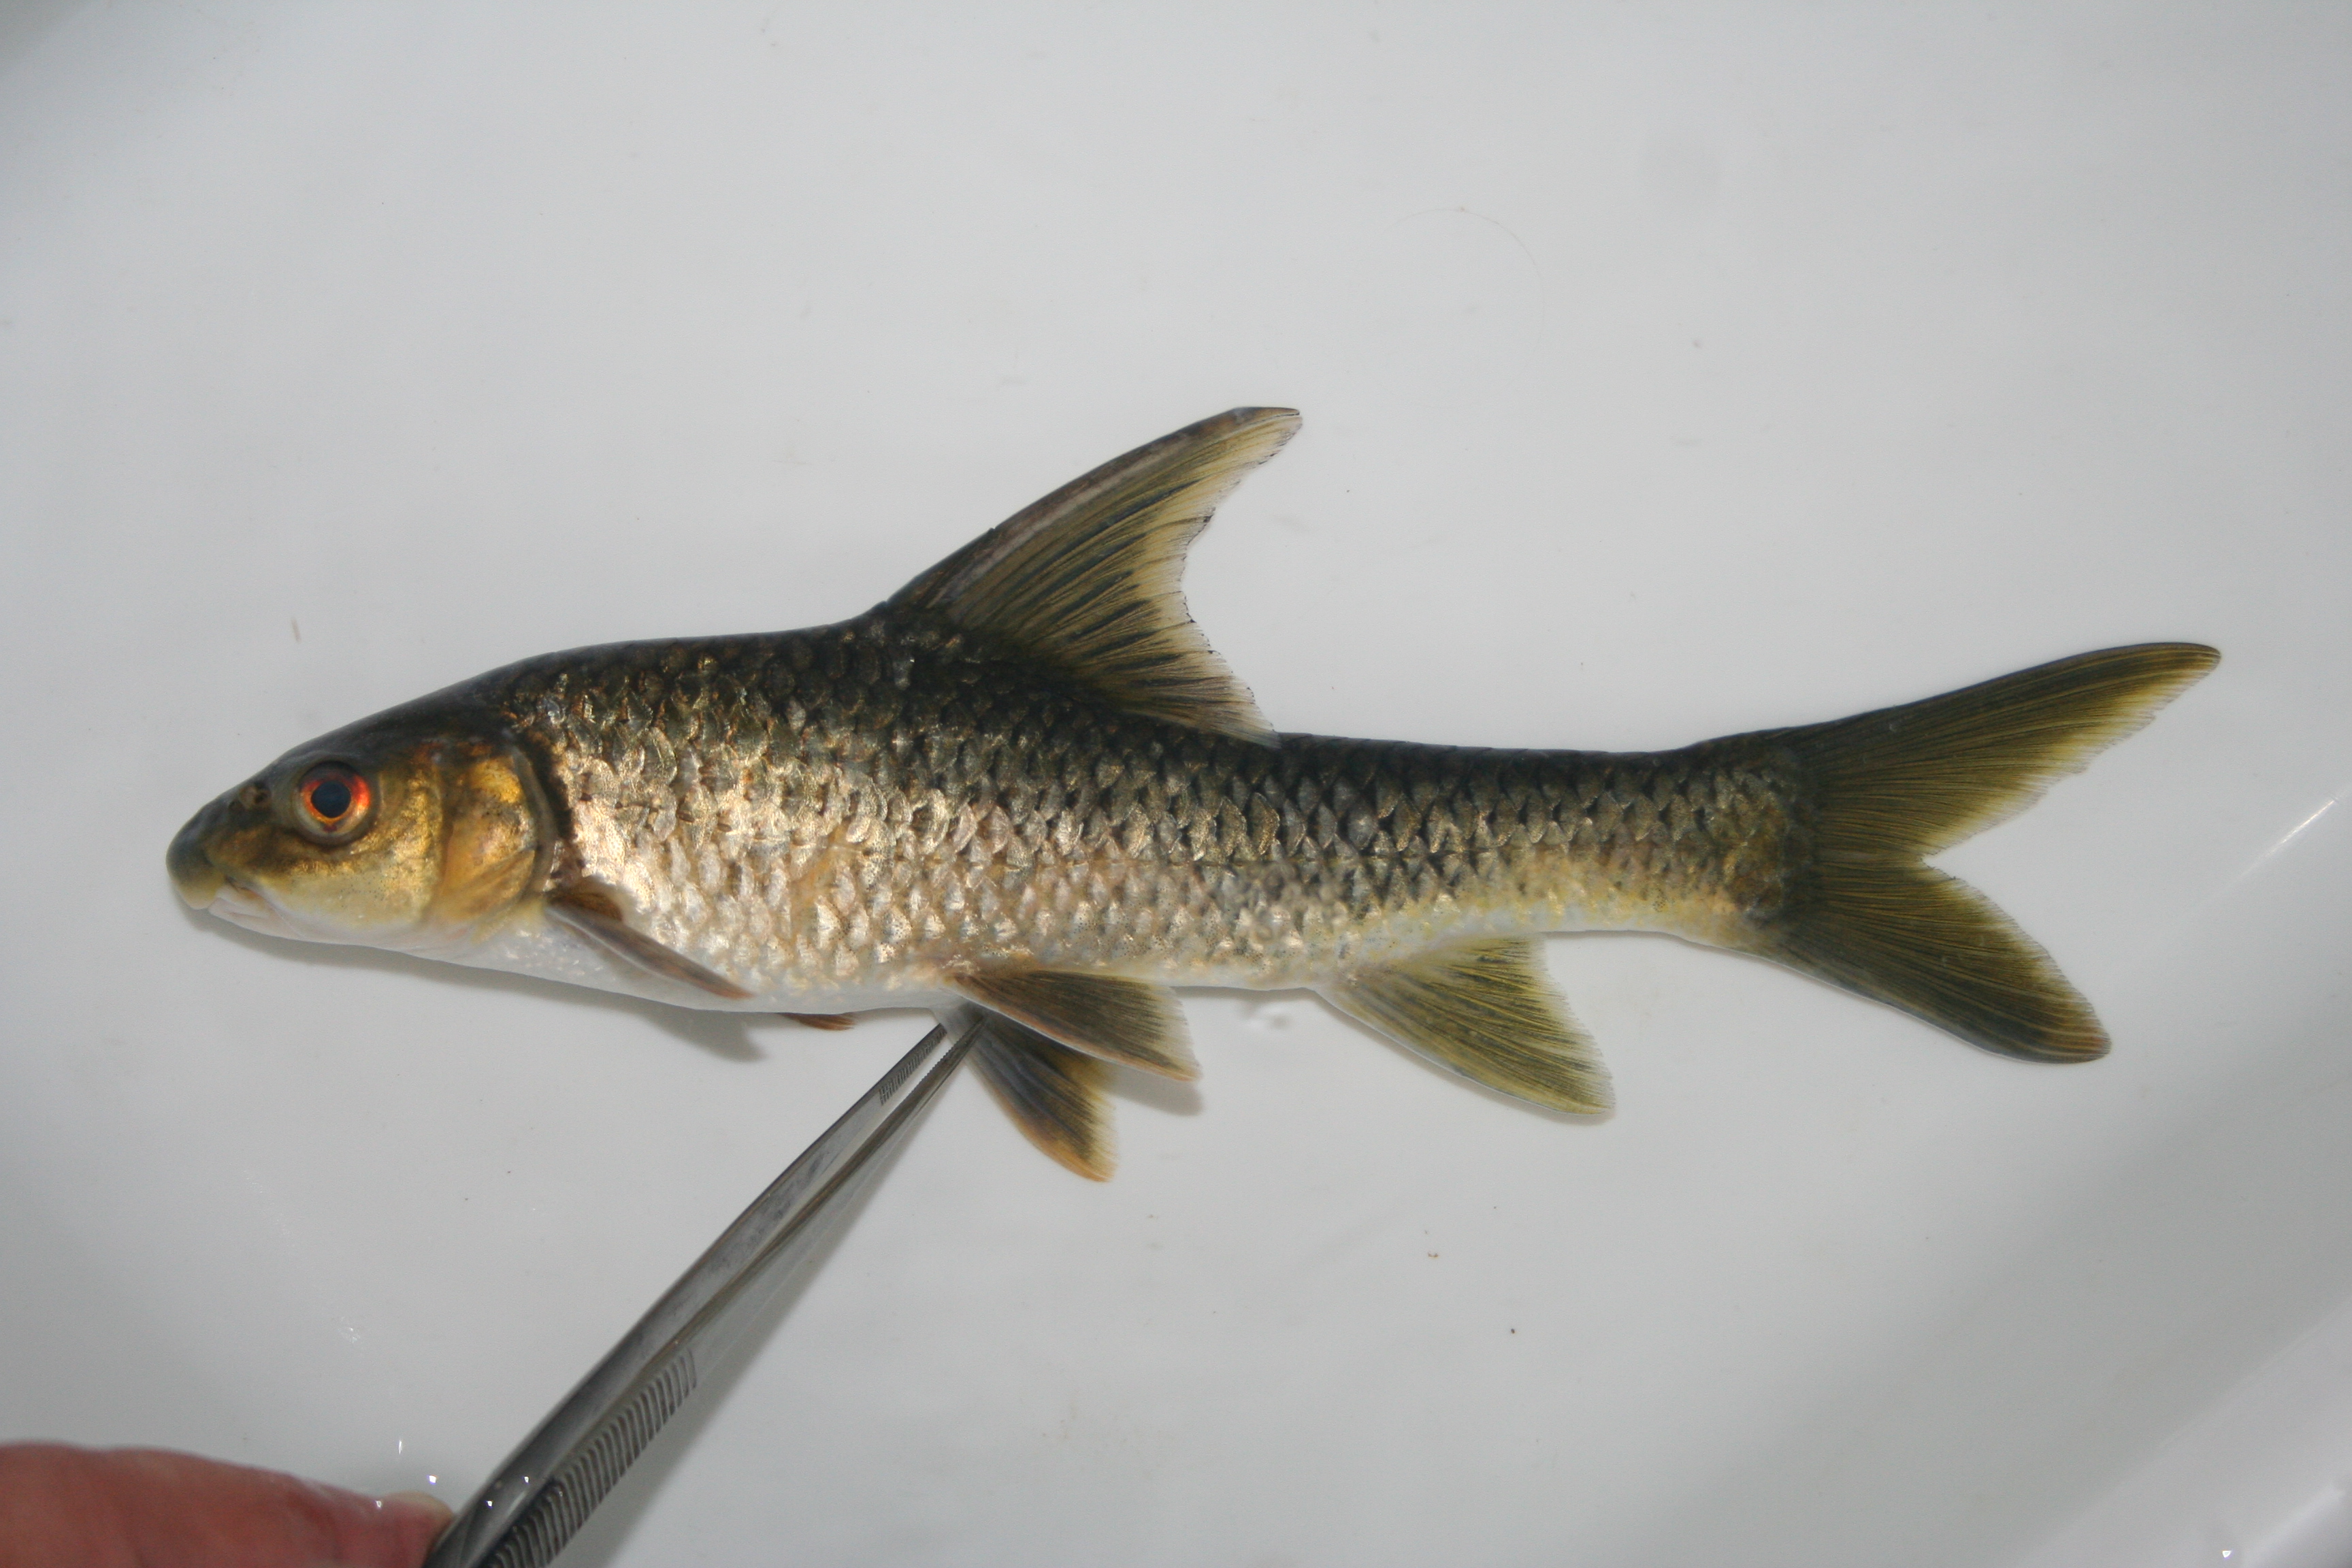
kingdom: Animalia
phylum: Chordata
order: Cypriniformes
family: Cyprinidae
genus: Labeobarbus
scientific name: Labeobarbus
